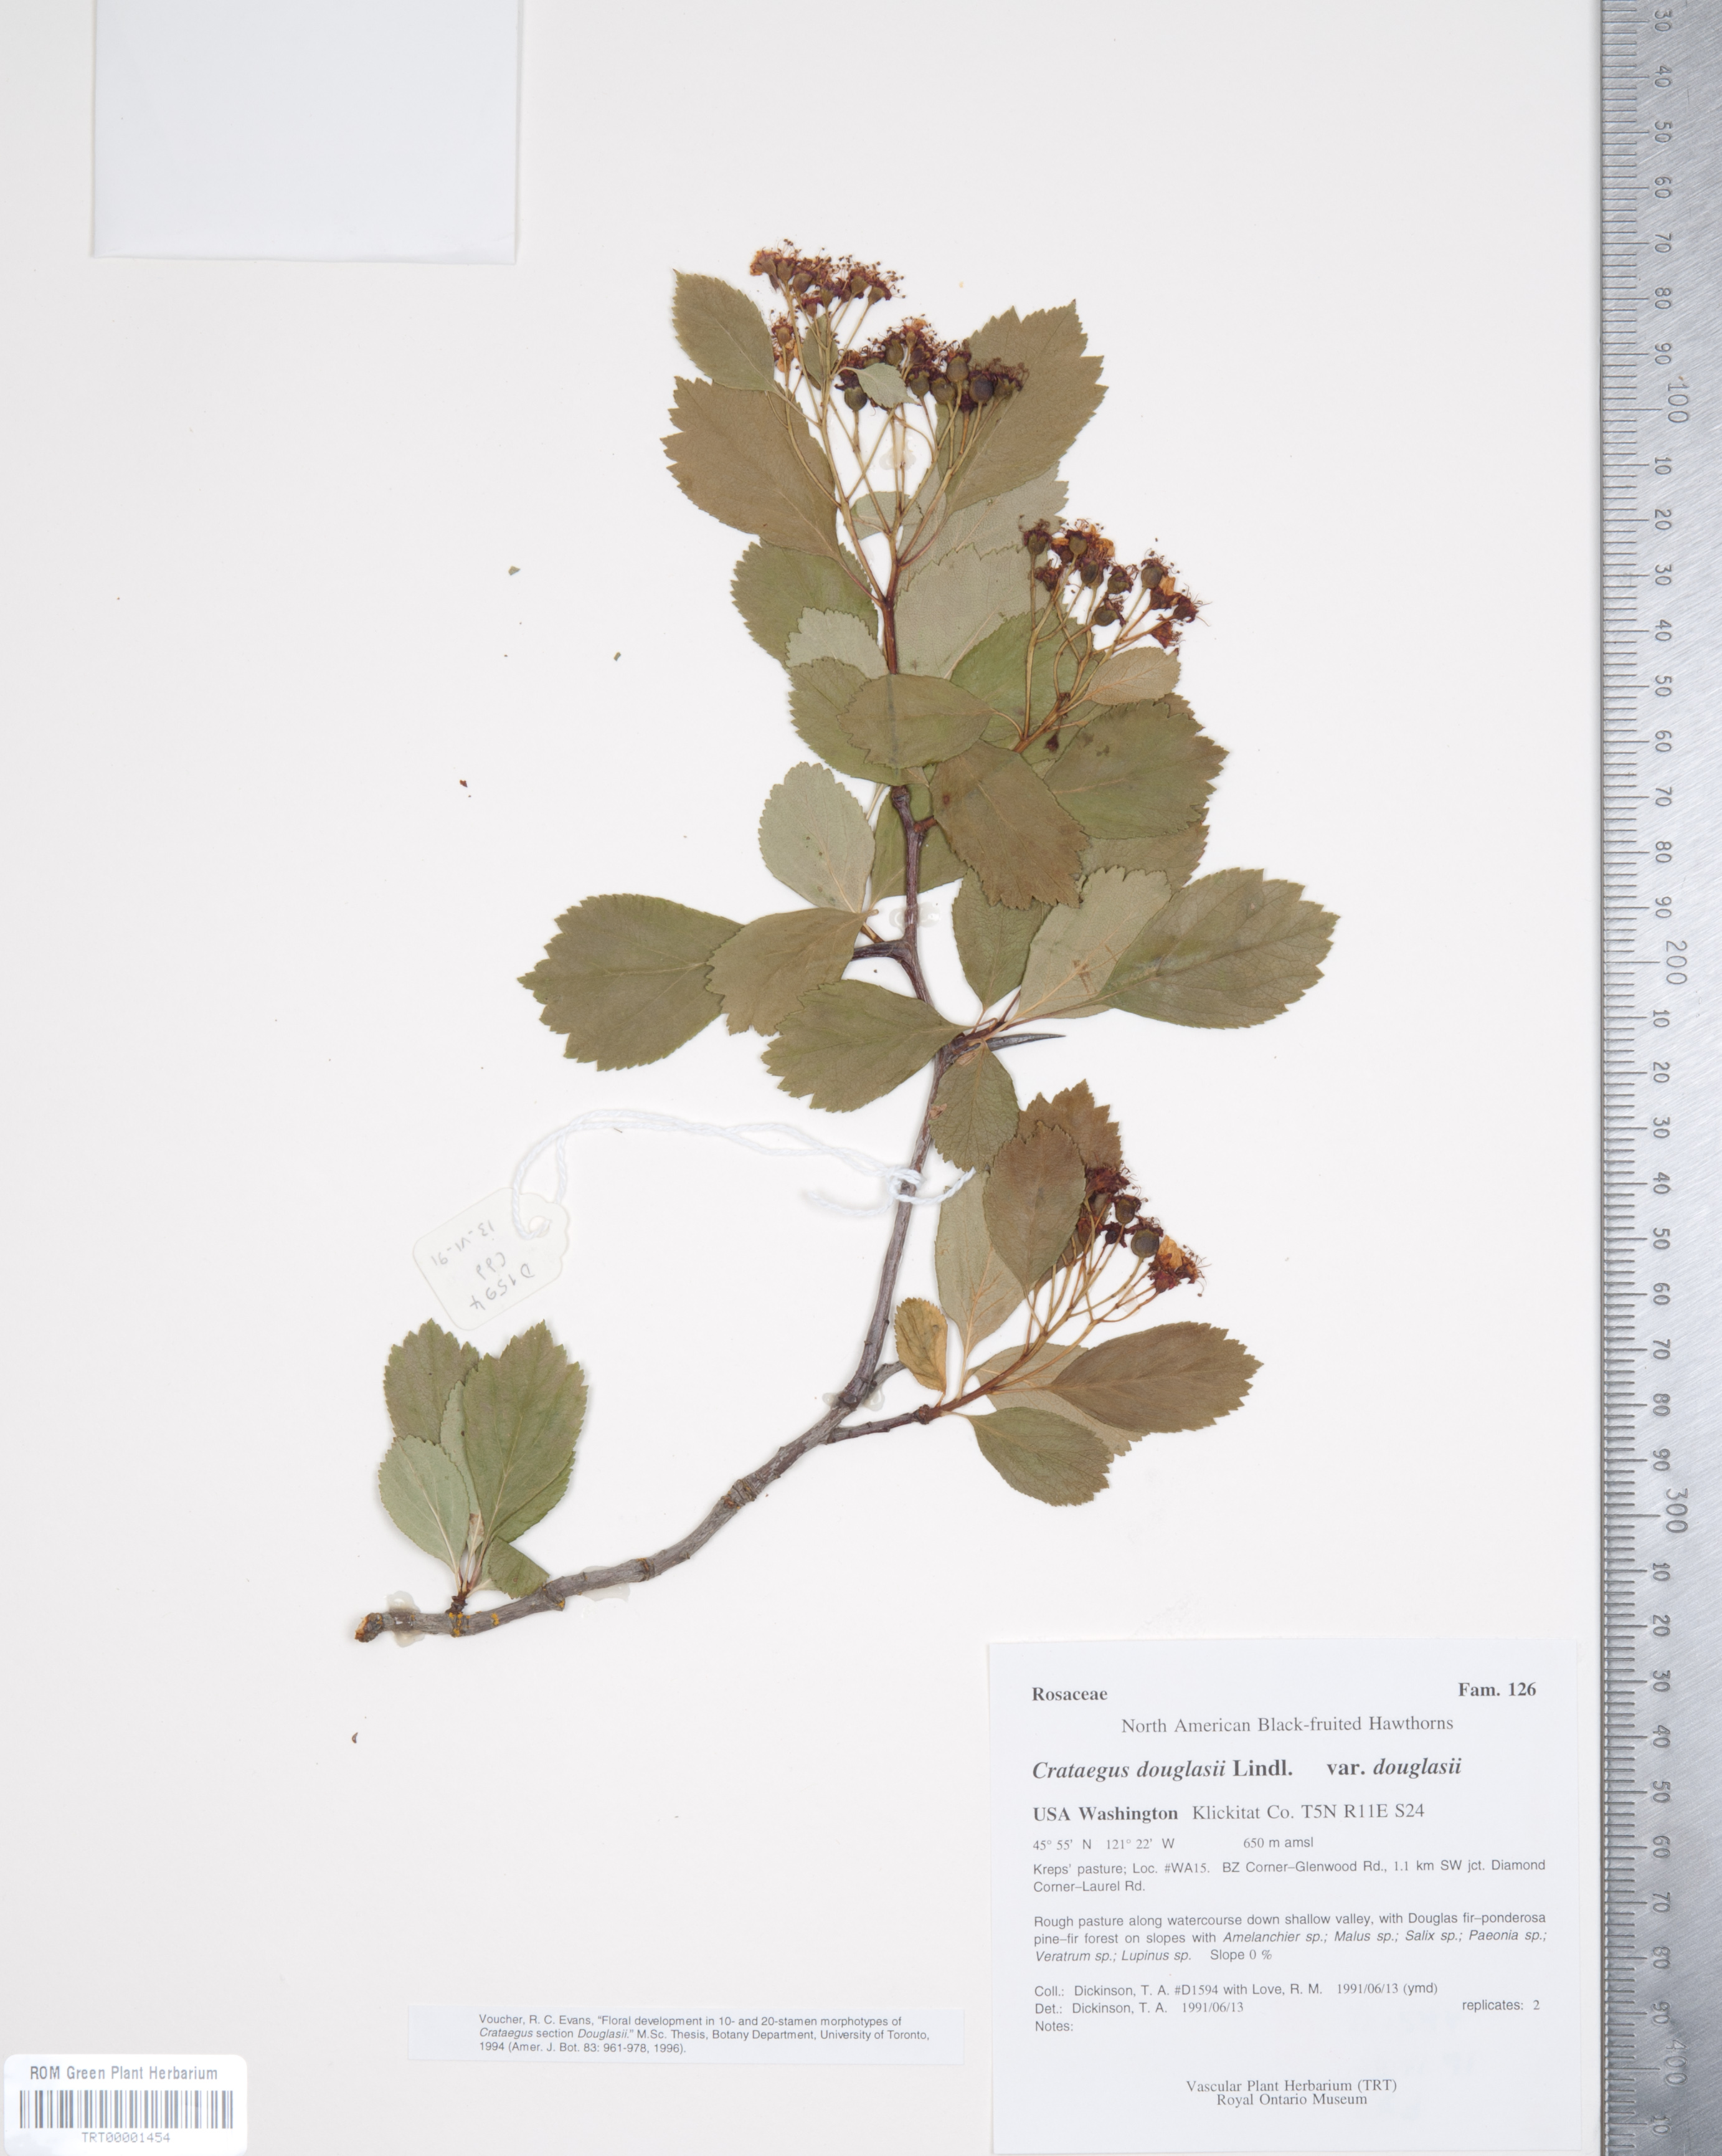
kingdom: Plantae
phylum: Tracheophyta
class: Magnoliopsida
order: Rosales
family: Rosaceae
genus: Crataegus
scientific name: Crataegus douglasii
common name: Black hawthorn
